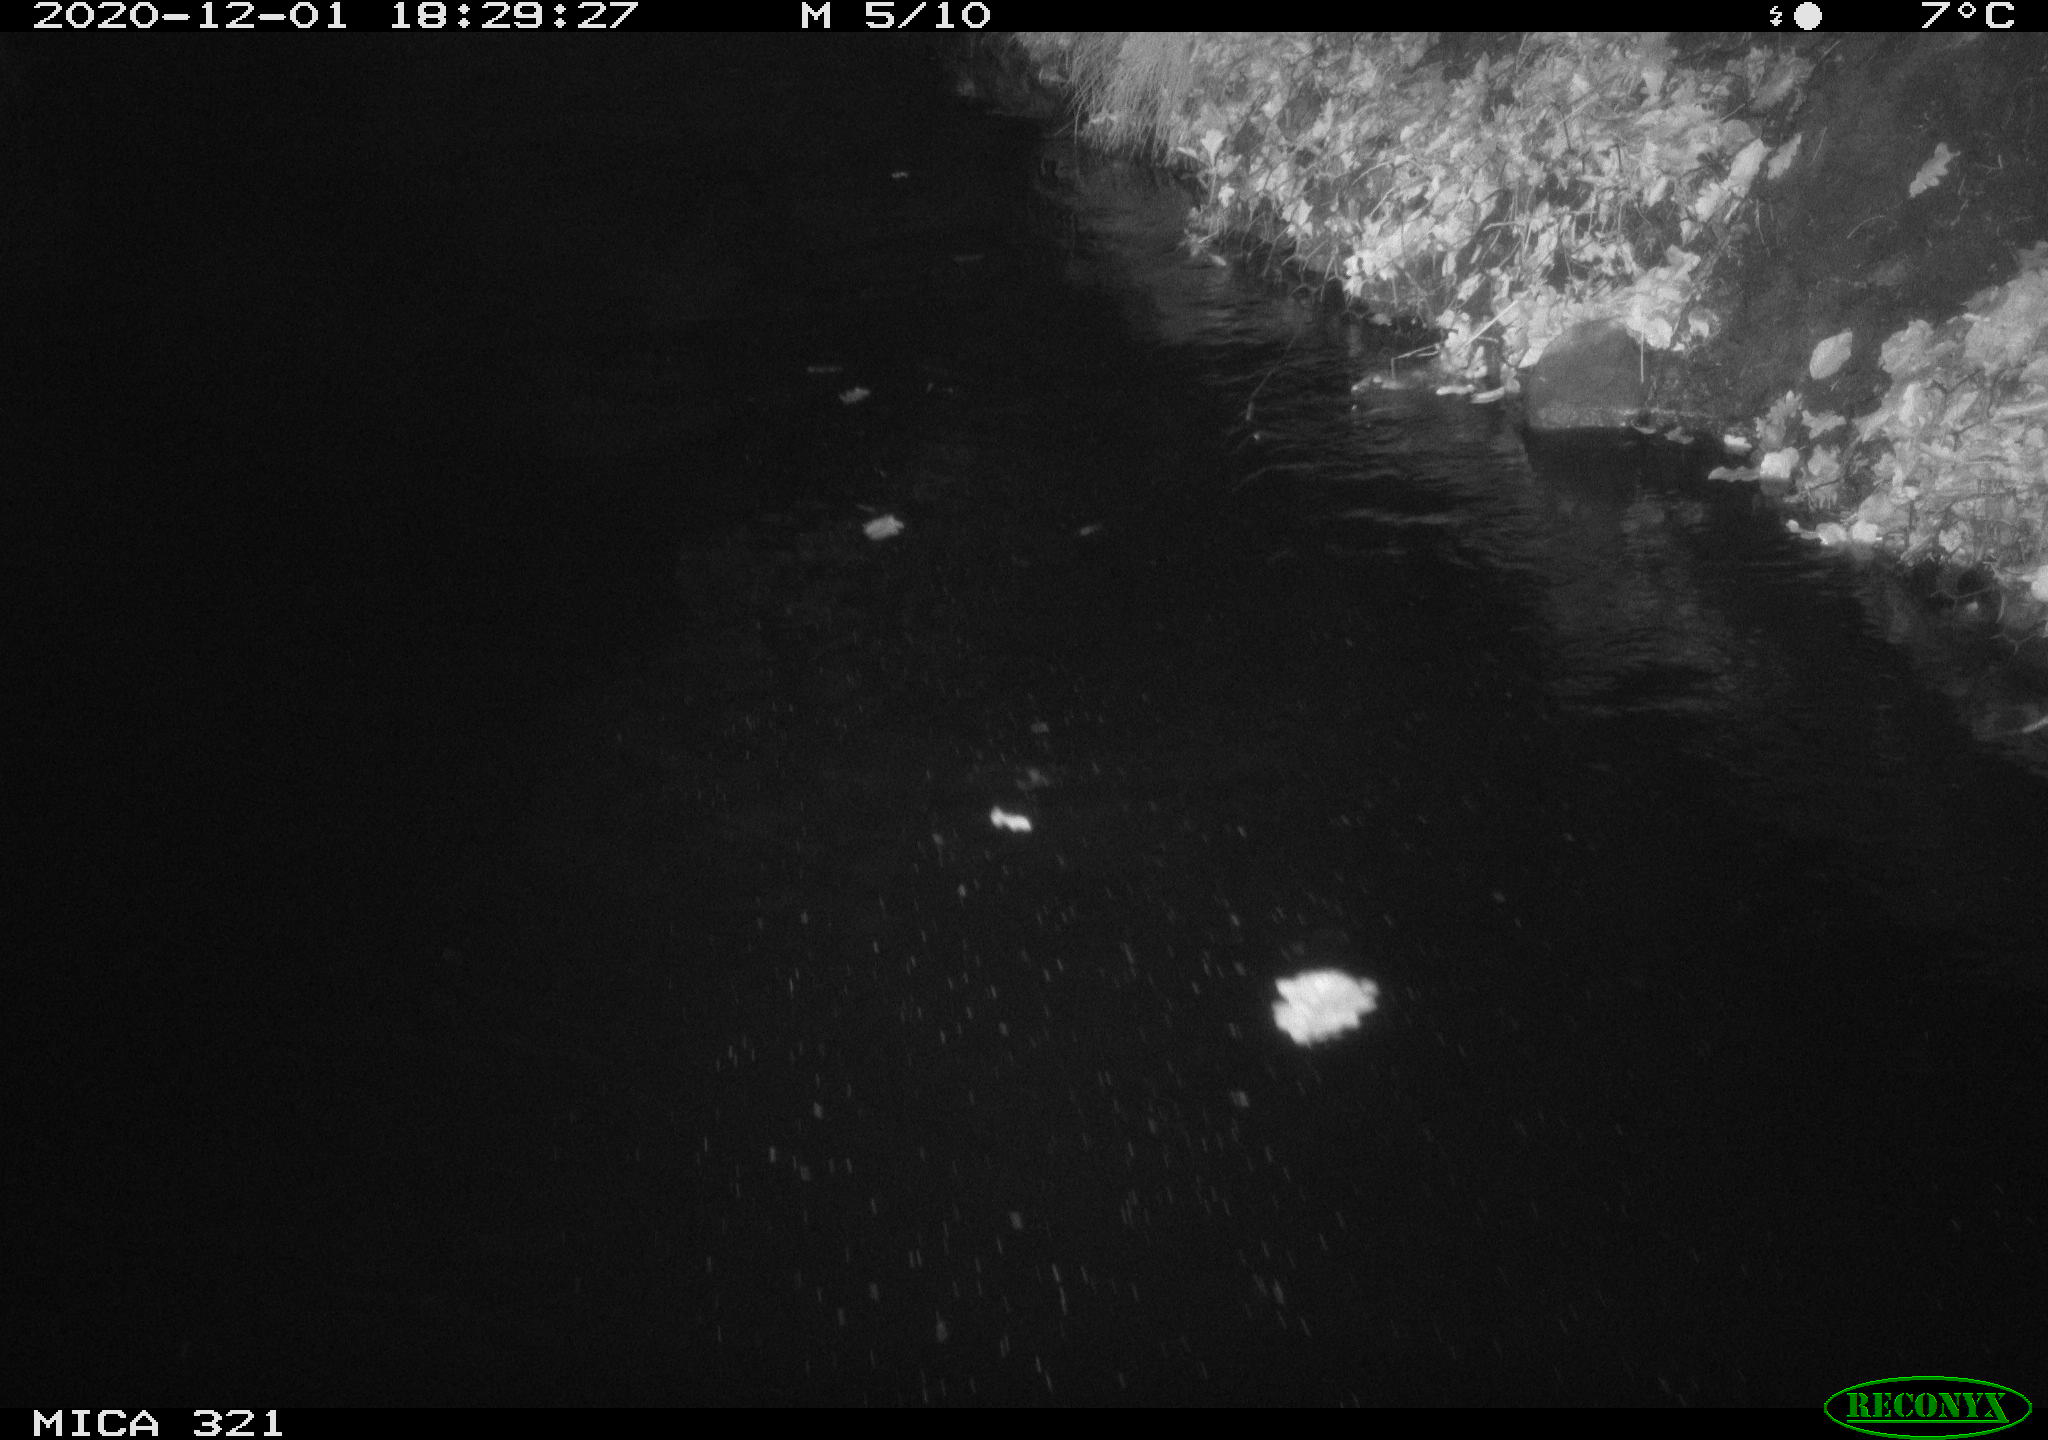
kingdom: Animalia
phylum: Chordata
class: Aves
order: Anseriformes
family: Anatidae
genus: Anas
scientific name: Anas platyrhynchos
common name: Mallard
